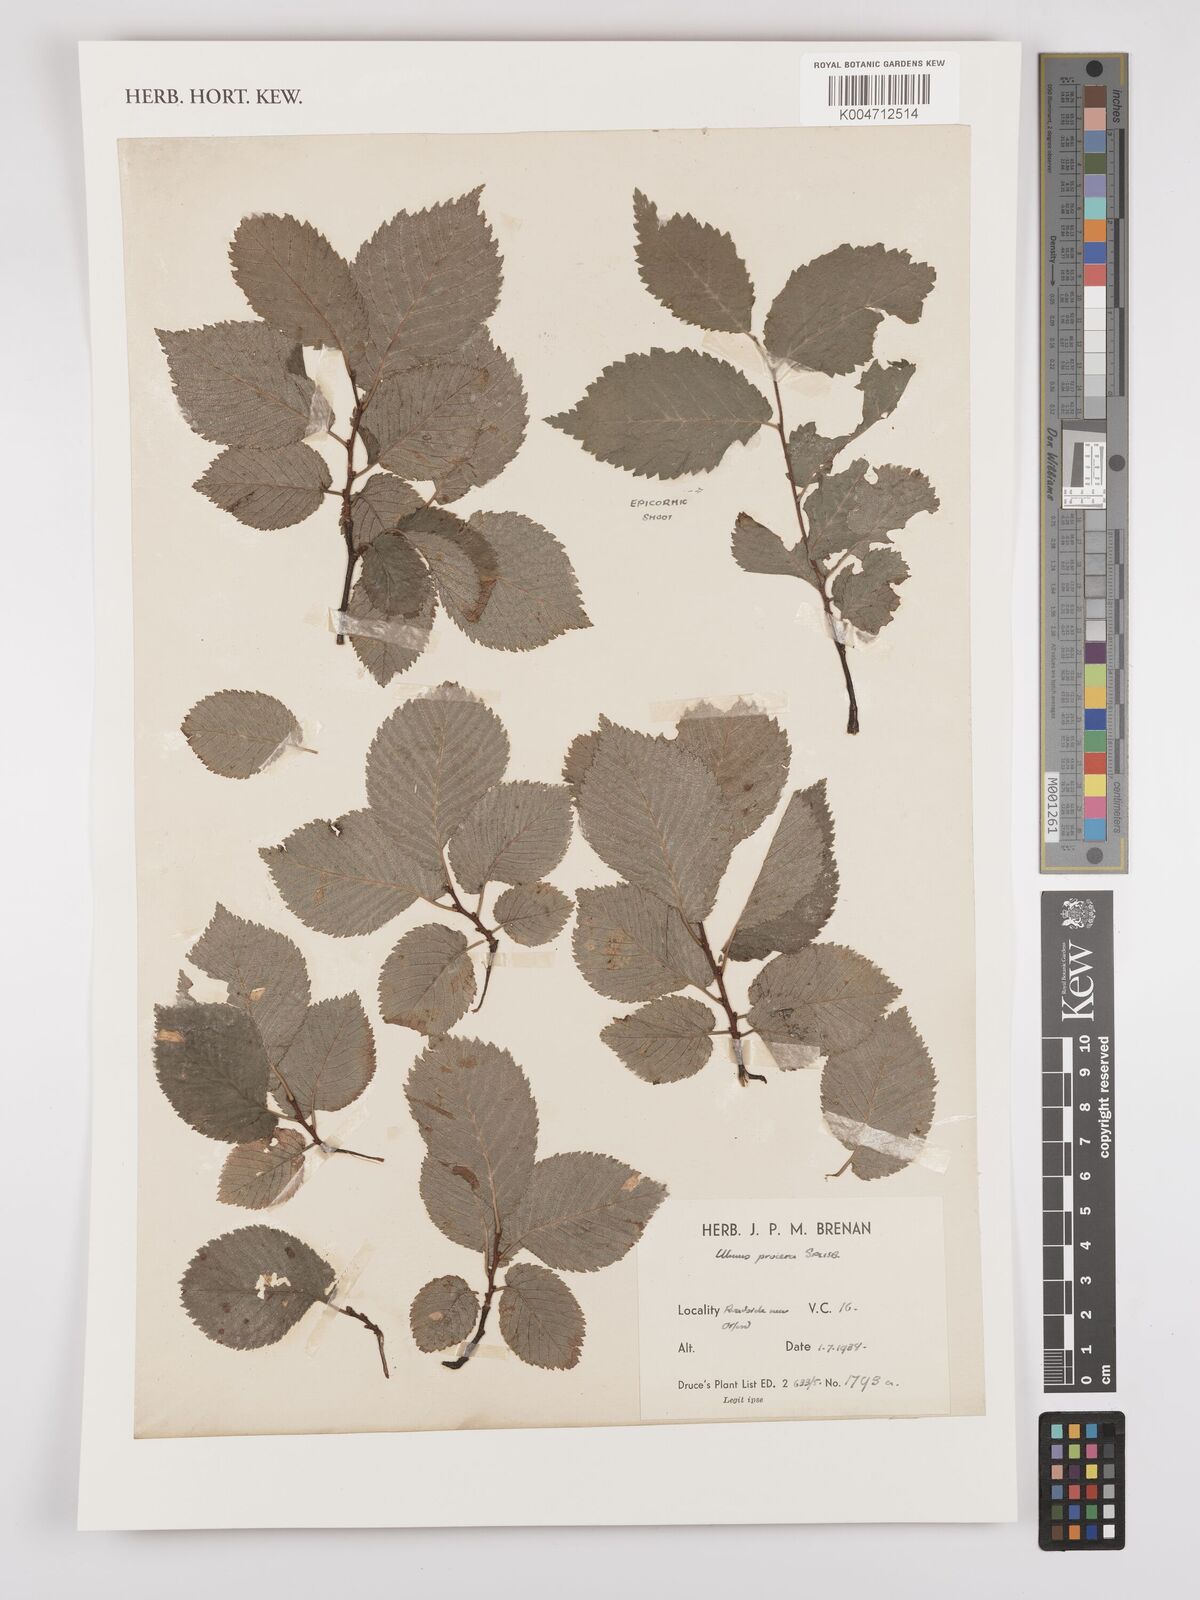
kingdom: Plantae
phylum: Tracheophyta
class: Magnoliopsida
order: Rosales
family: Ulmaceae
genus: Ulmus
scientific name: Ulmus minor
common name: Small-leaved elm
